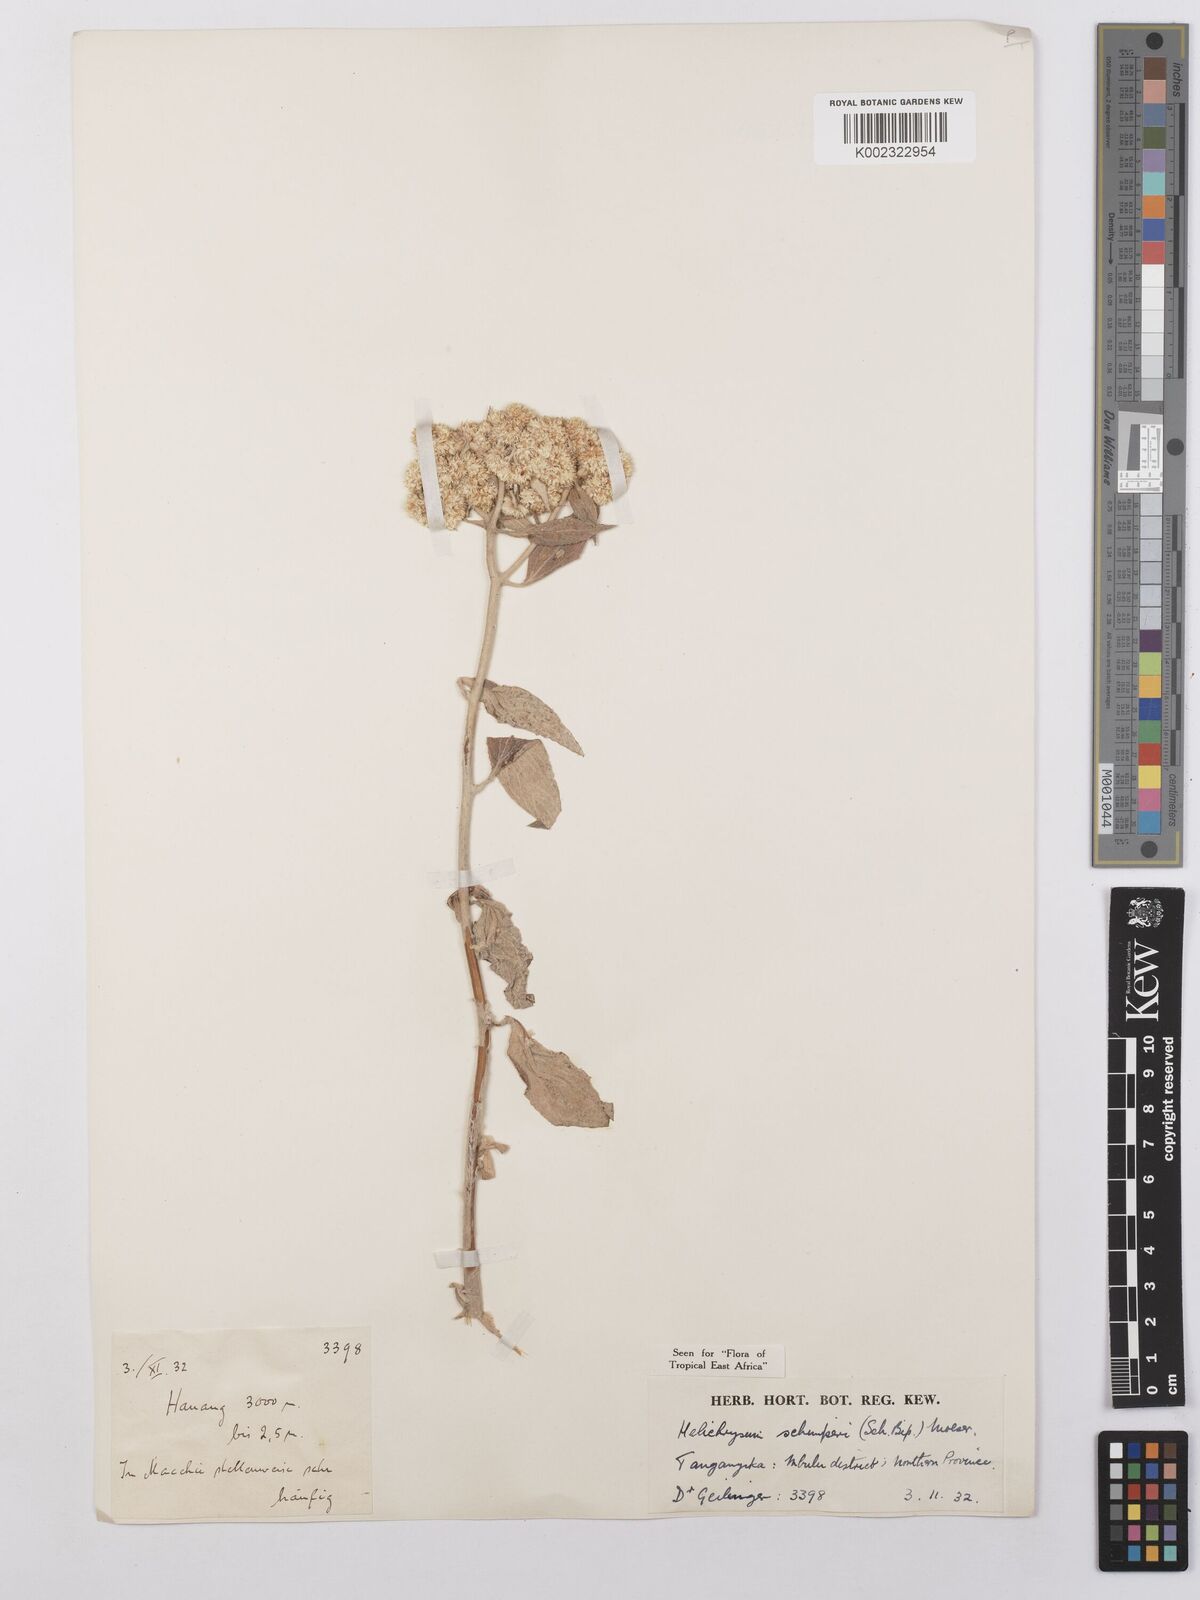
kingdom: Plantae
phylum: Tracheophyta
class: Magnoliopsida
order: Asterales
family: Asteraceae
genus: Helichrysum
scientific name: Helichrysum schimperi
